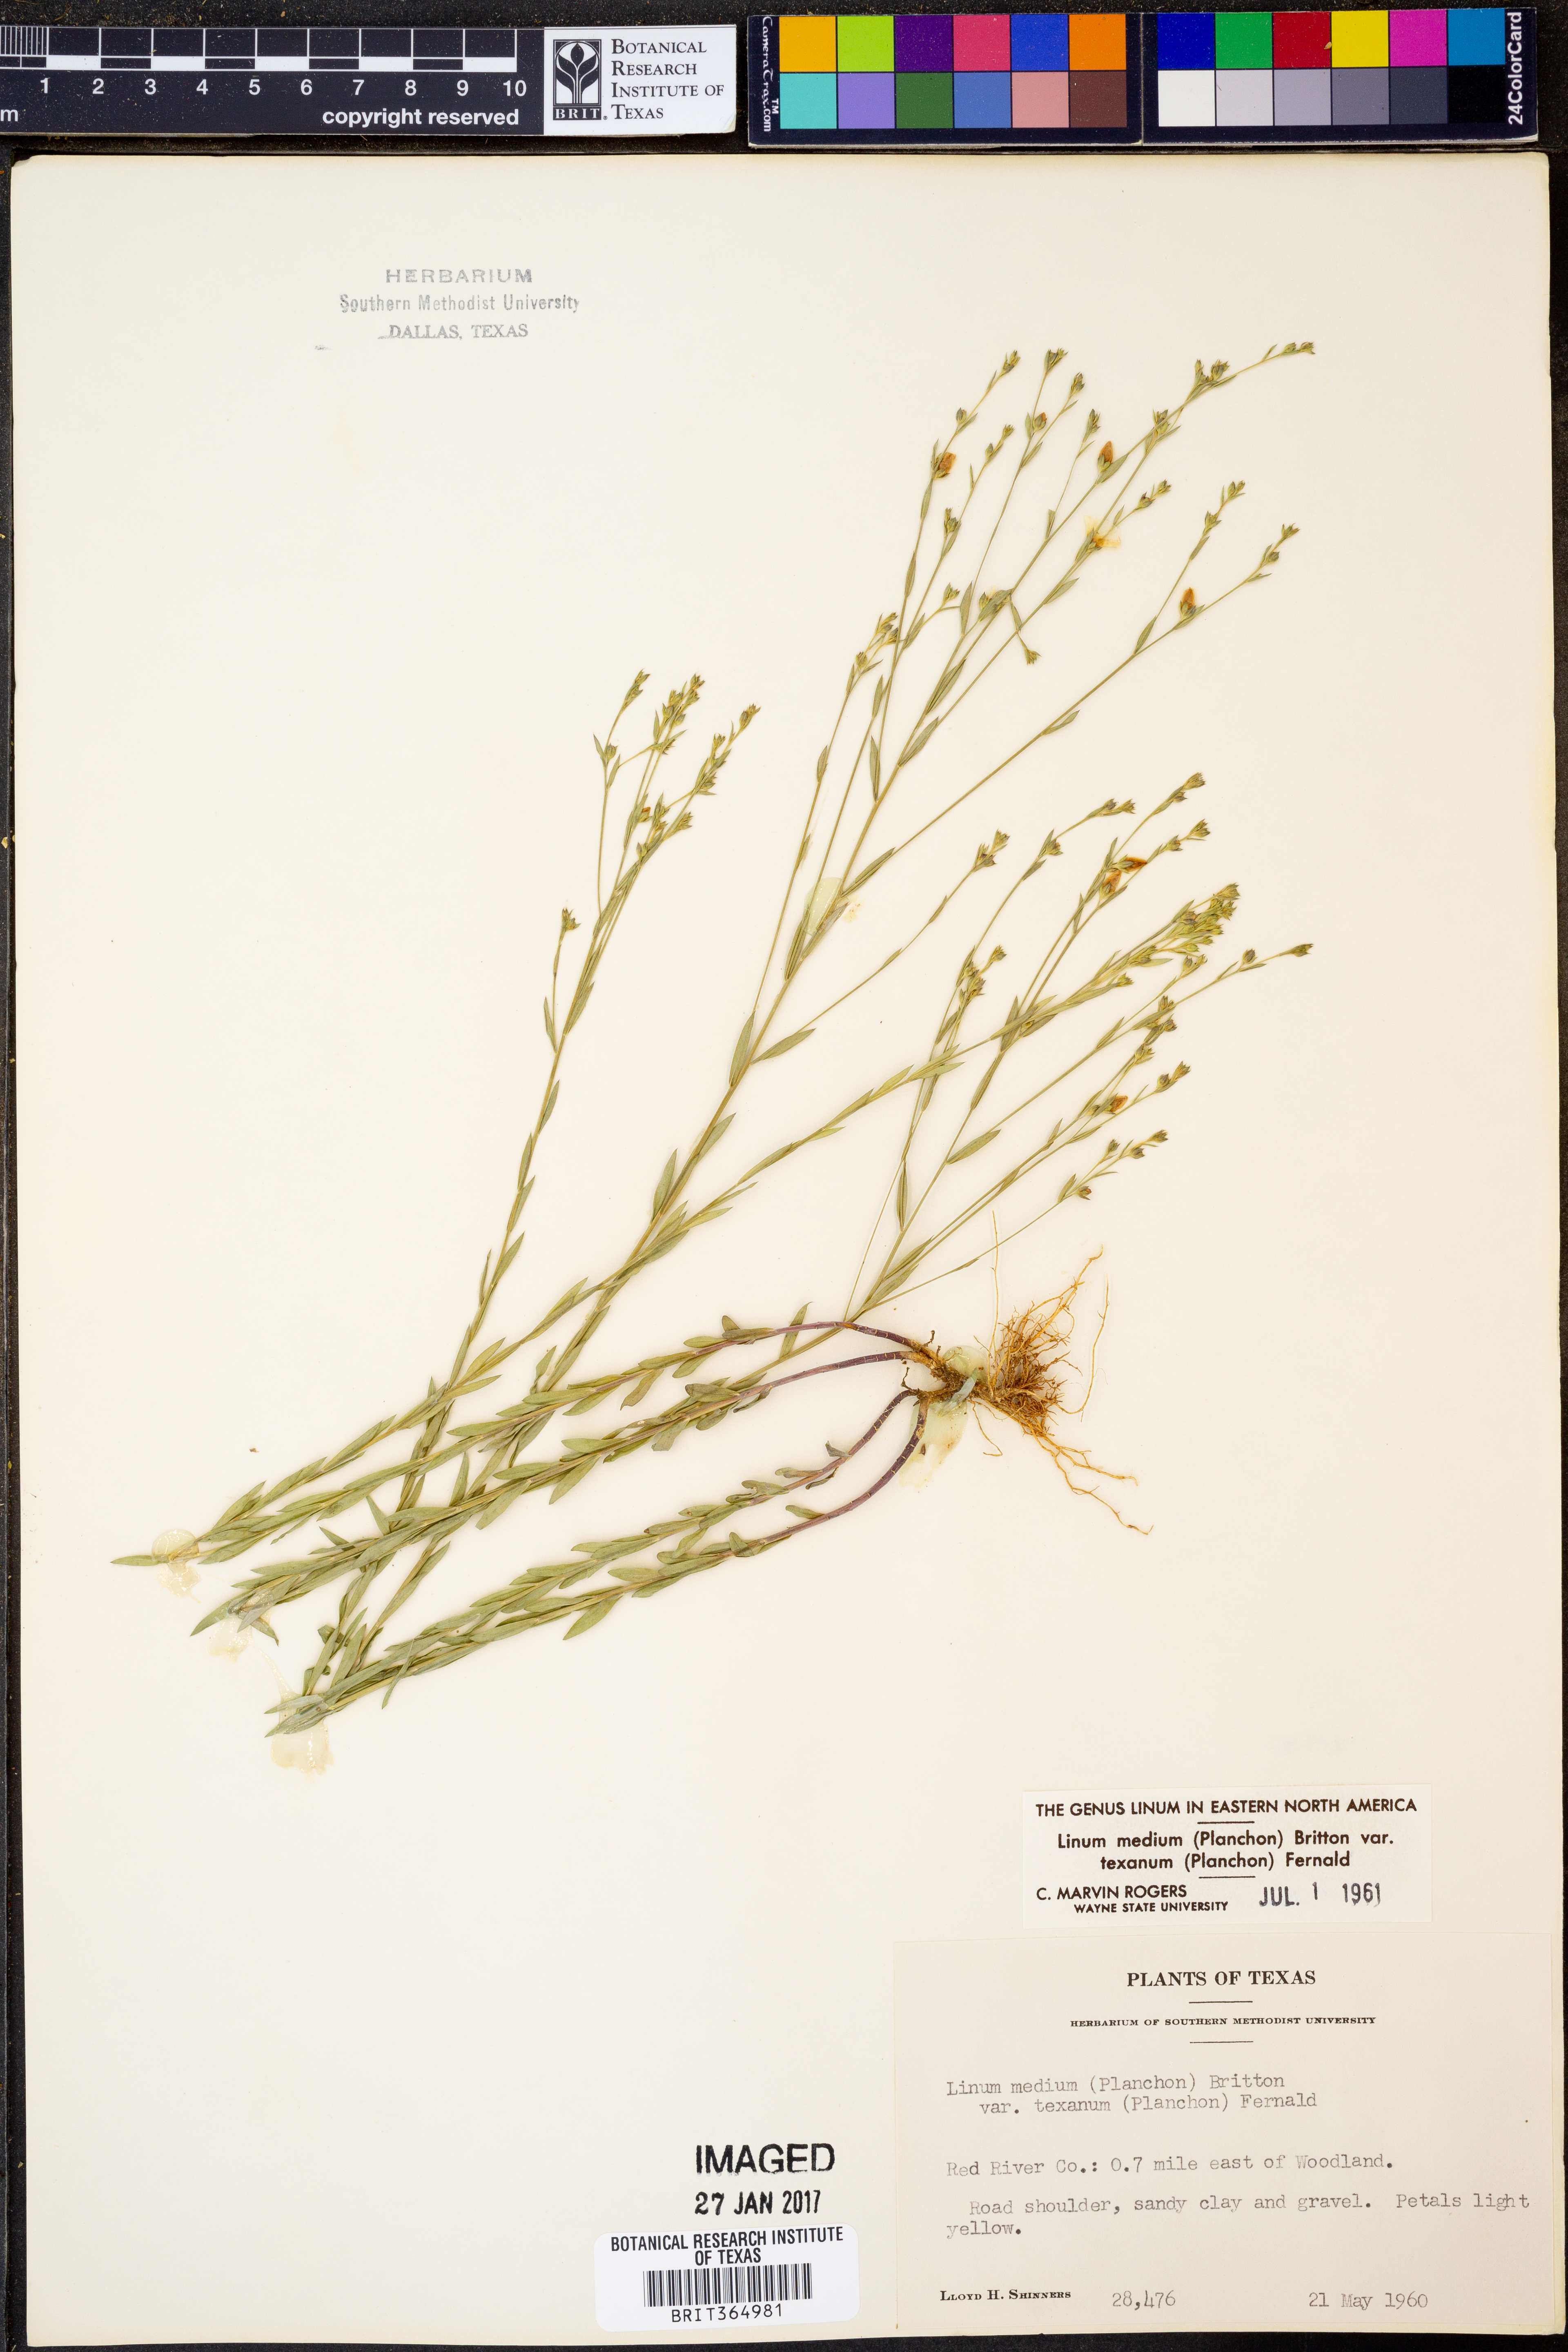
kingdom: Plantae
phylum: Tracheophyta
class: Magnoliopsida
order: Malpighiales
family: Linaceae
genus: Linum
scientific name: Linum medium
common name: Stiff yellow flax
